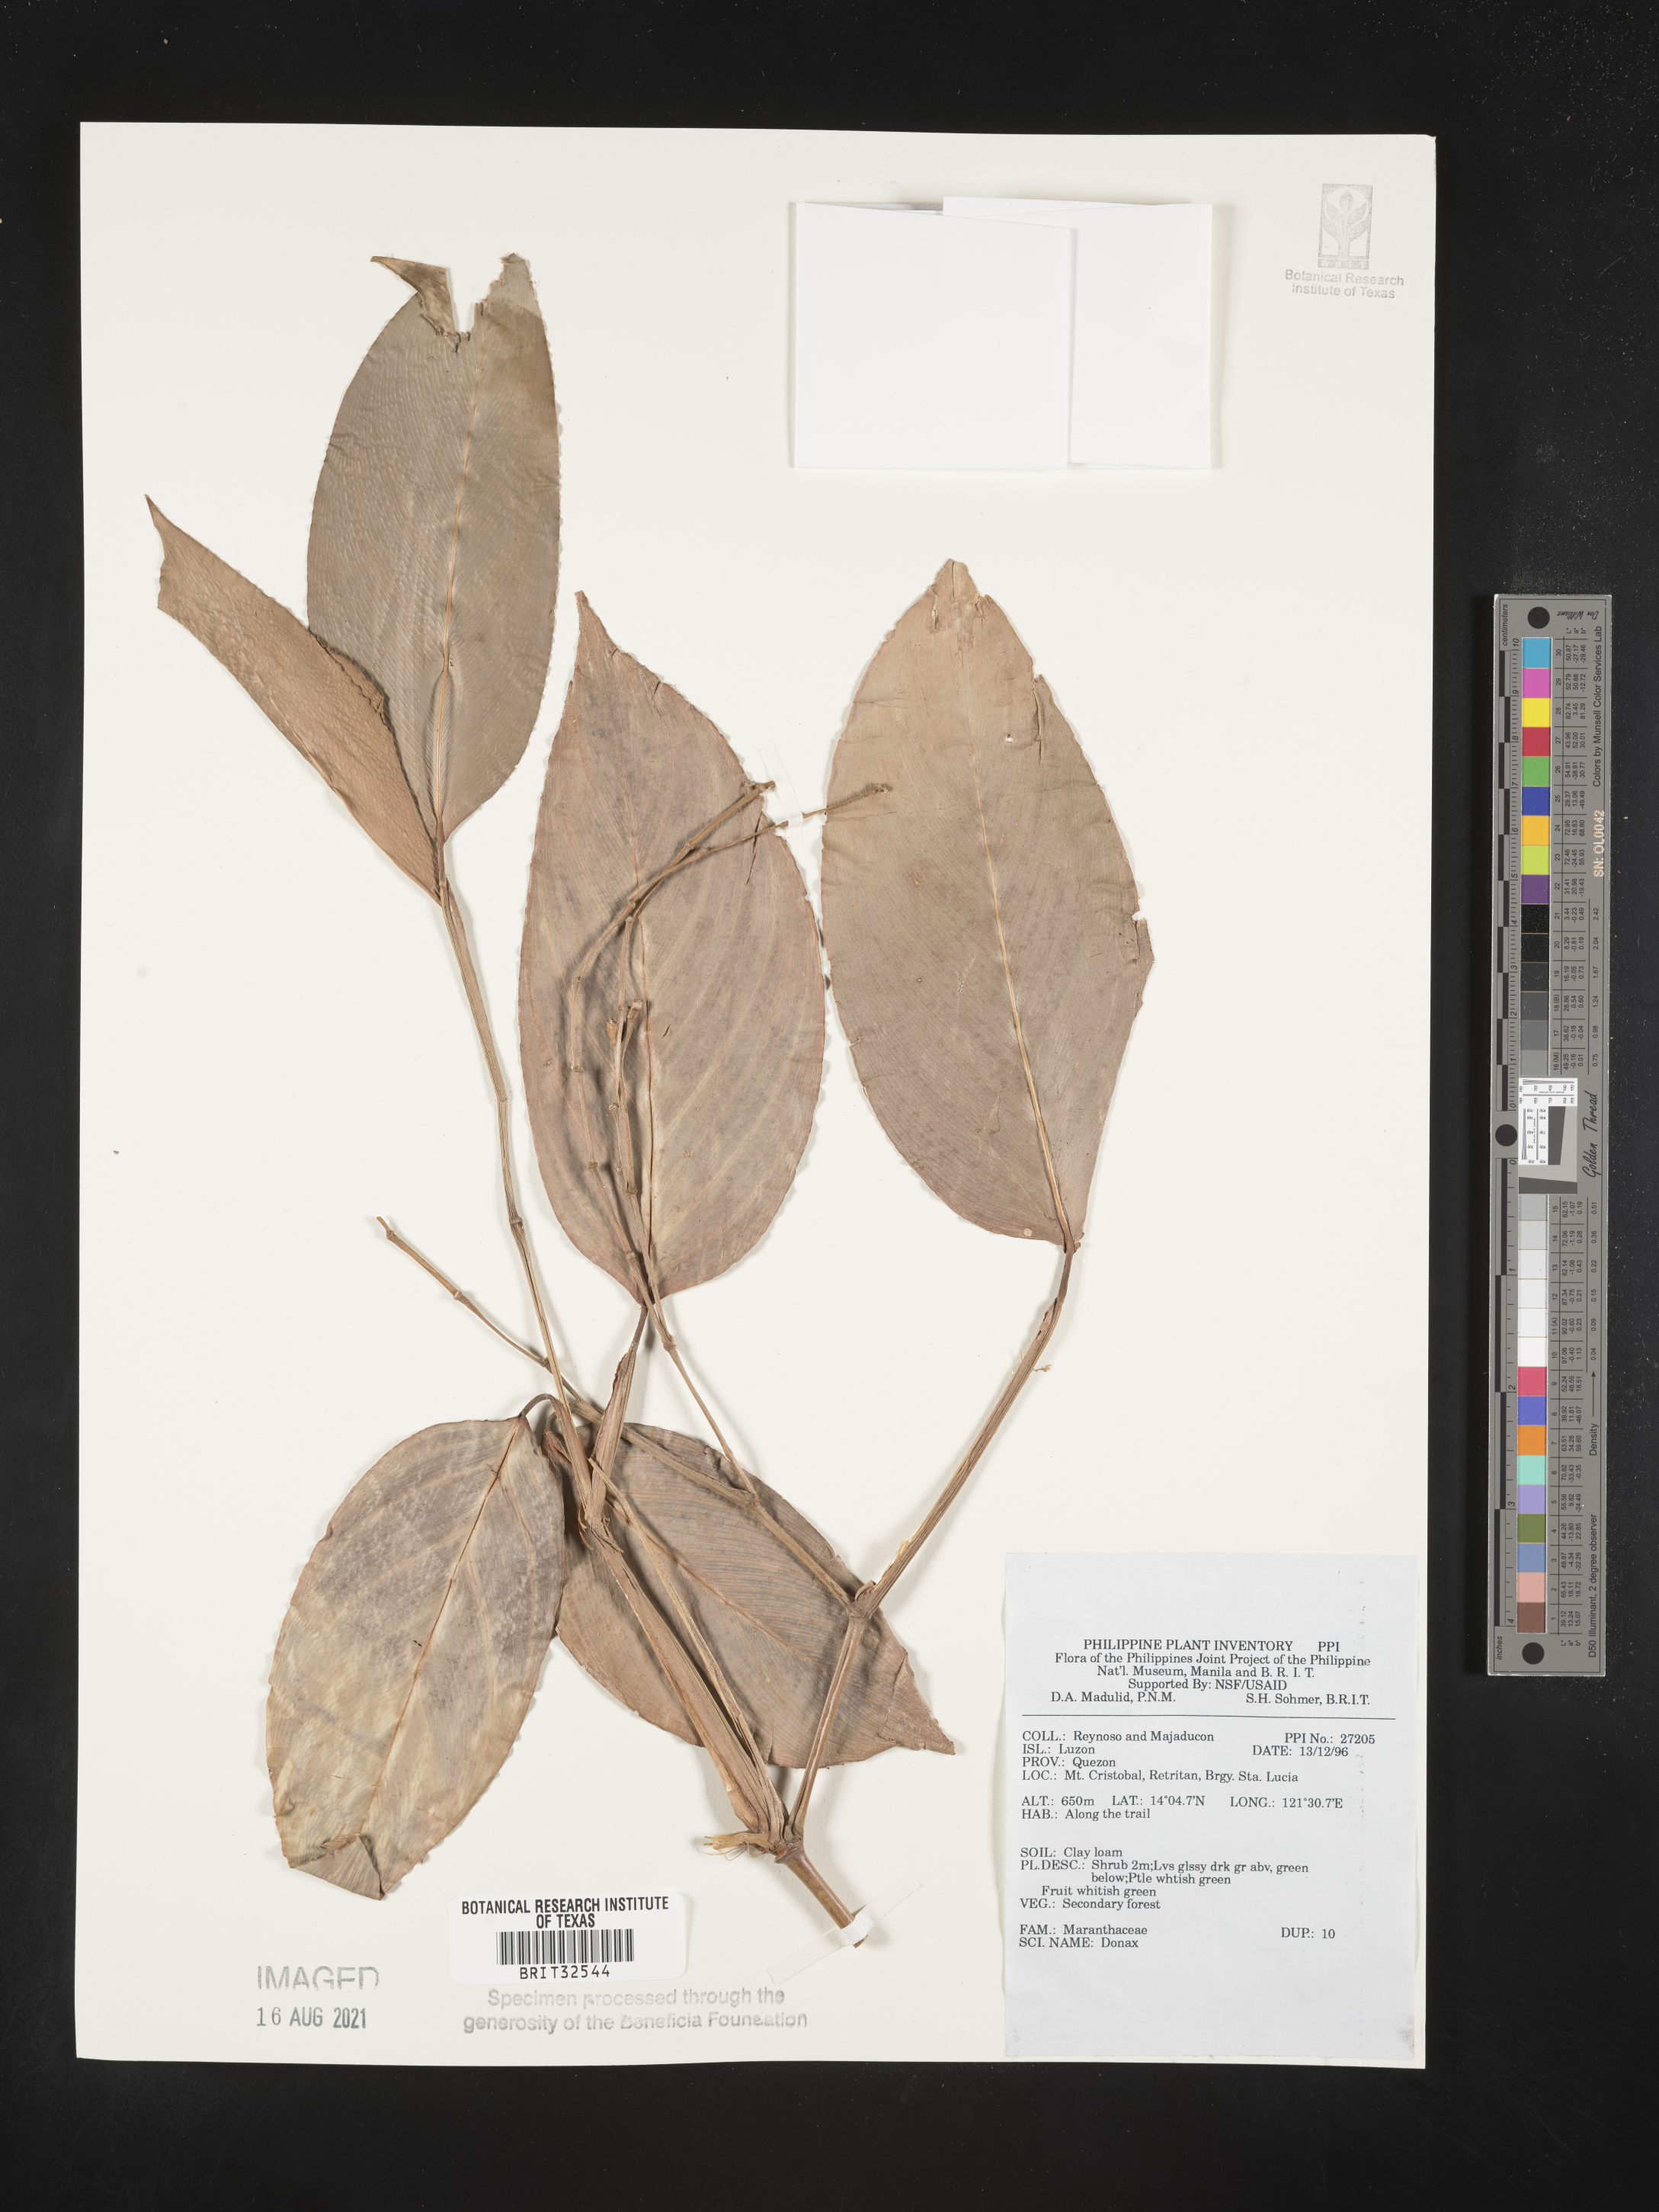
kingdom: Plantae
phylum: Tracheophyta
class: Liliopsida
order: Zingiberales
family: Marantaceae
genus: Donax
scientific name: Donax
